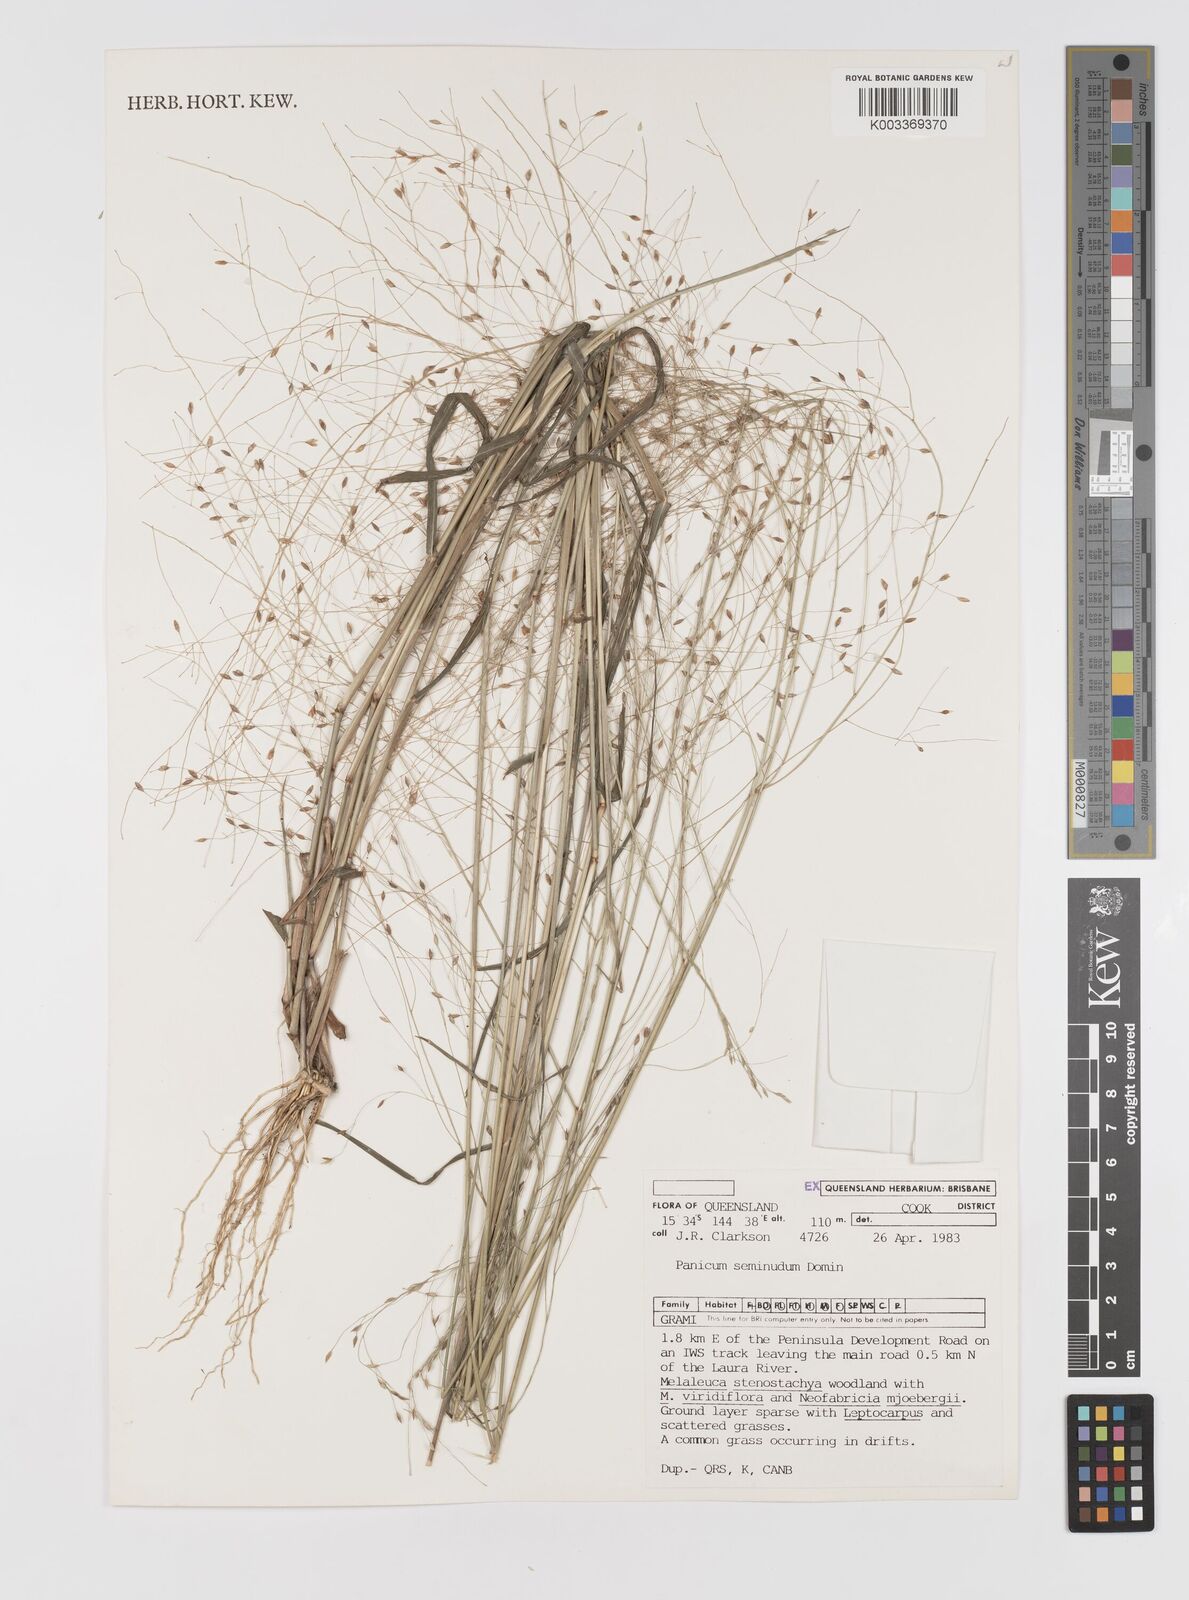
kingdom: Plantae
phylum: Tracheophyta
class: Liliopsida
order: Poales
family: Poaceae
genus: Panicum
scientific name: Panicum seminudum
